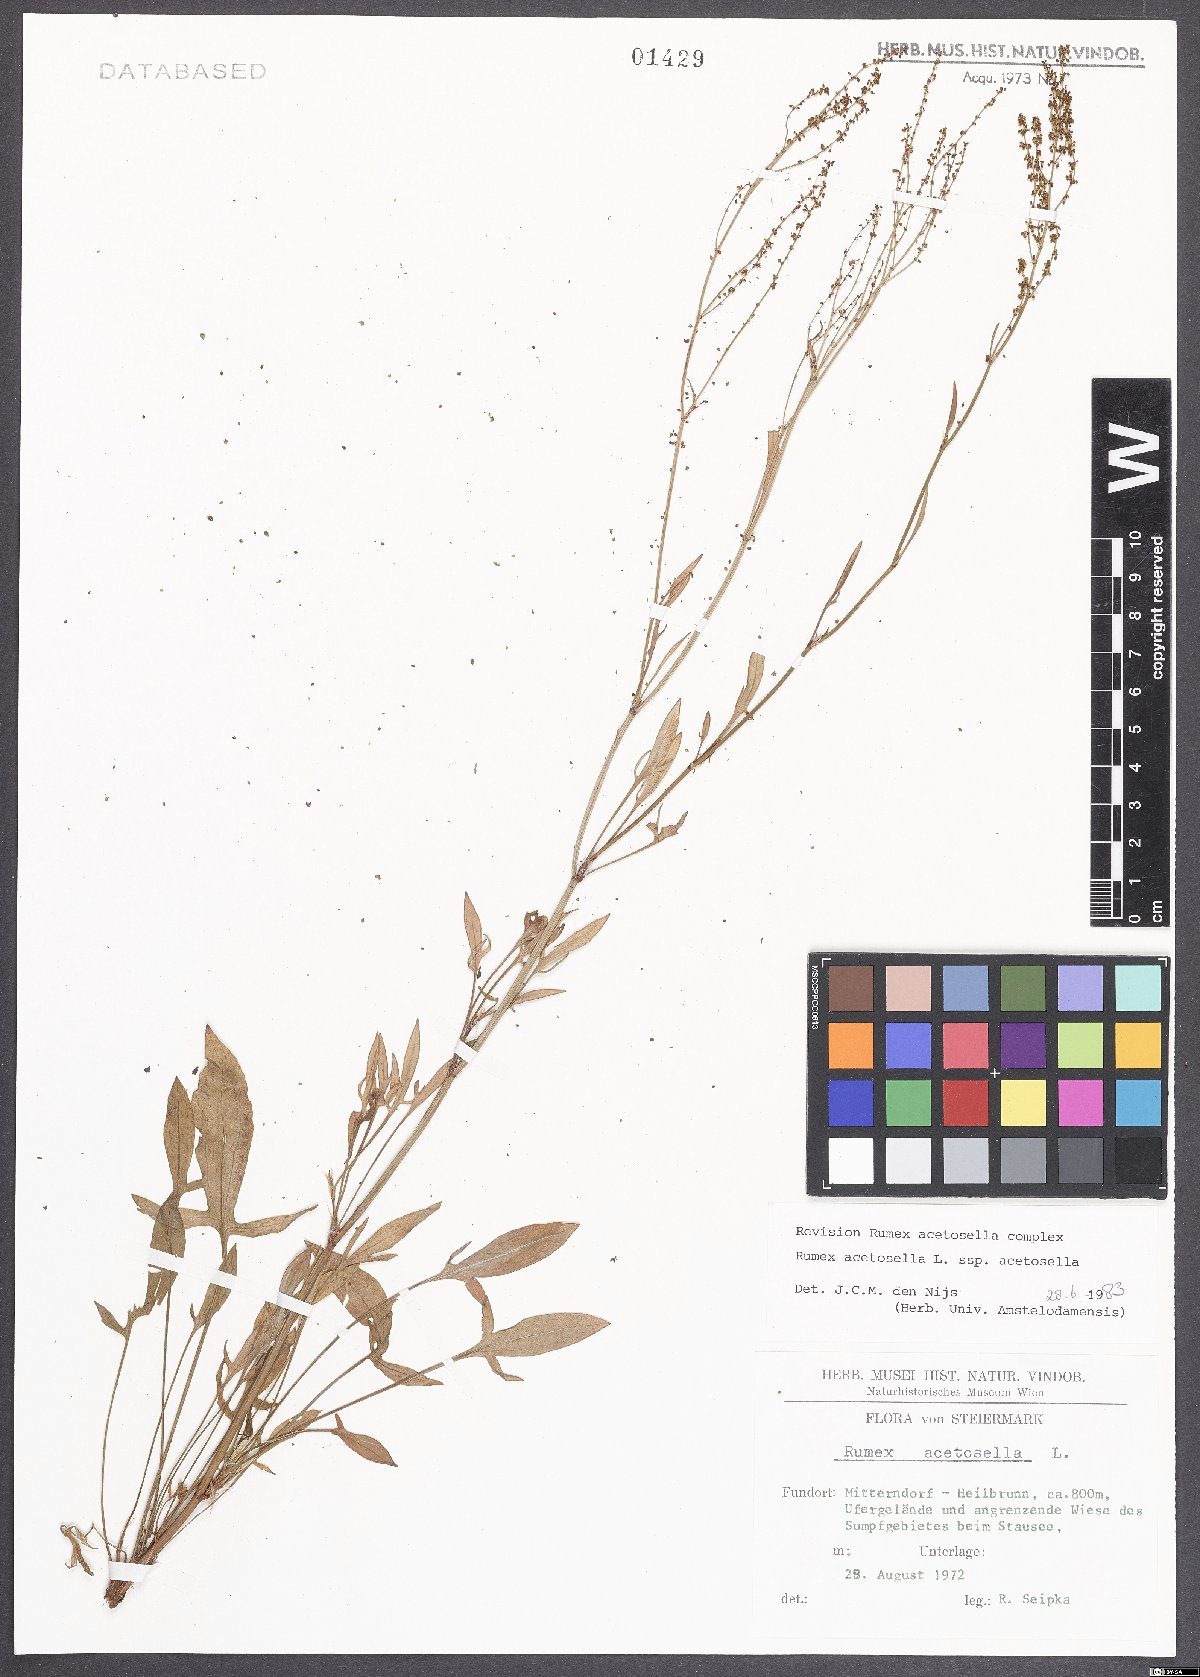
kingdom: Plantae
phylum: Tracheophyta
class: Magnoliopsida
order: Caryophyllales
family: Polygonaceae
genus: Rumex
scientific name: Rumex acetosella
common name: Common sheep sorrel
